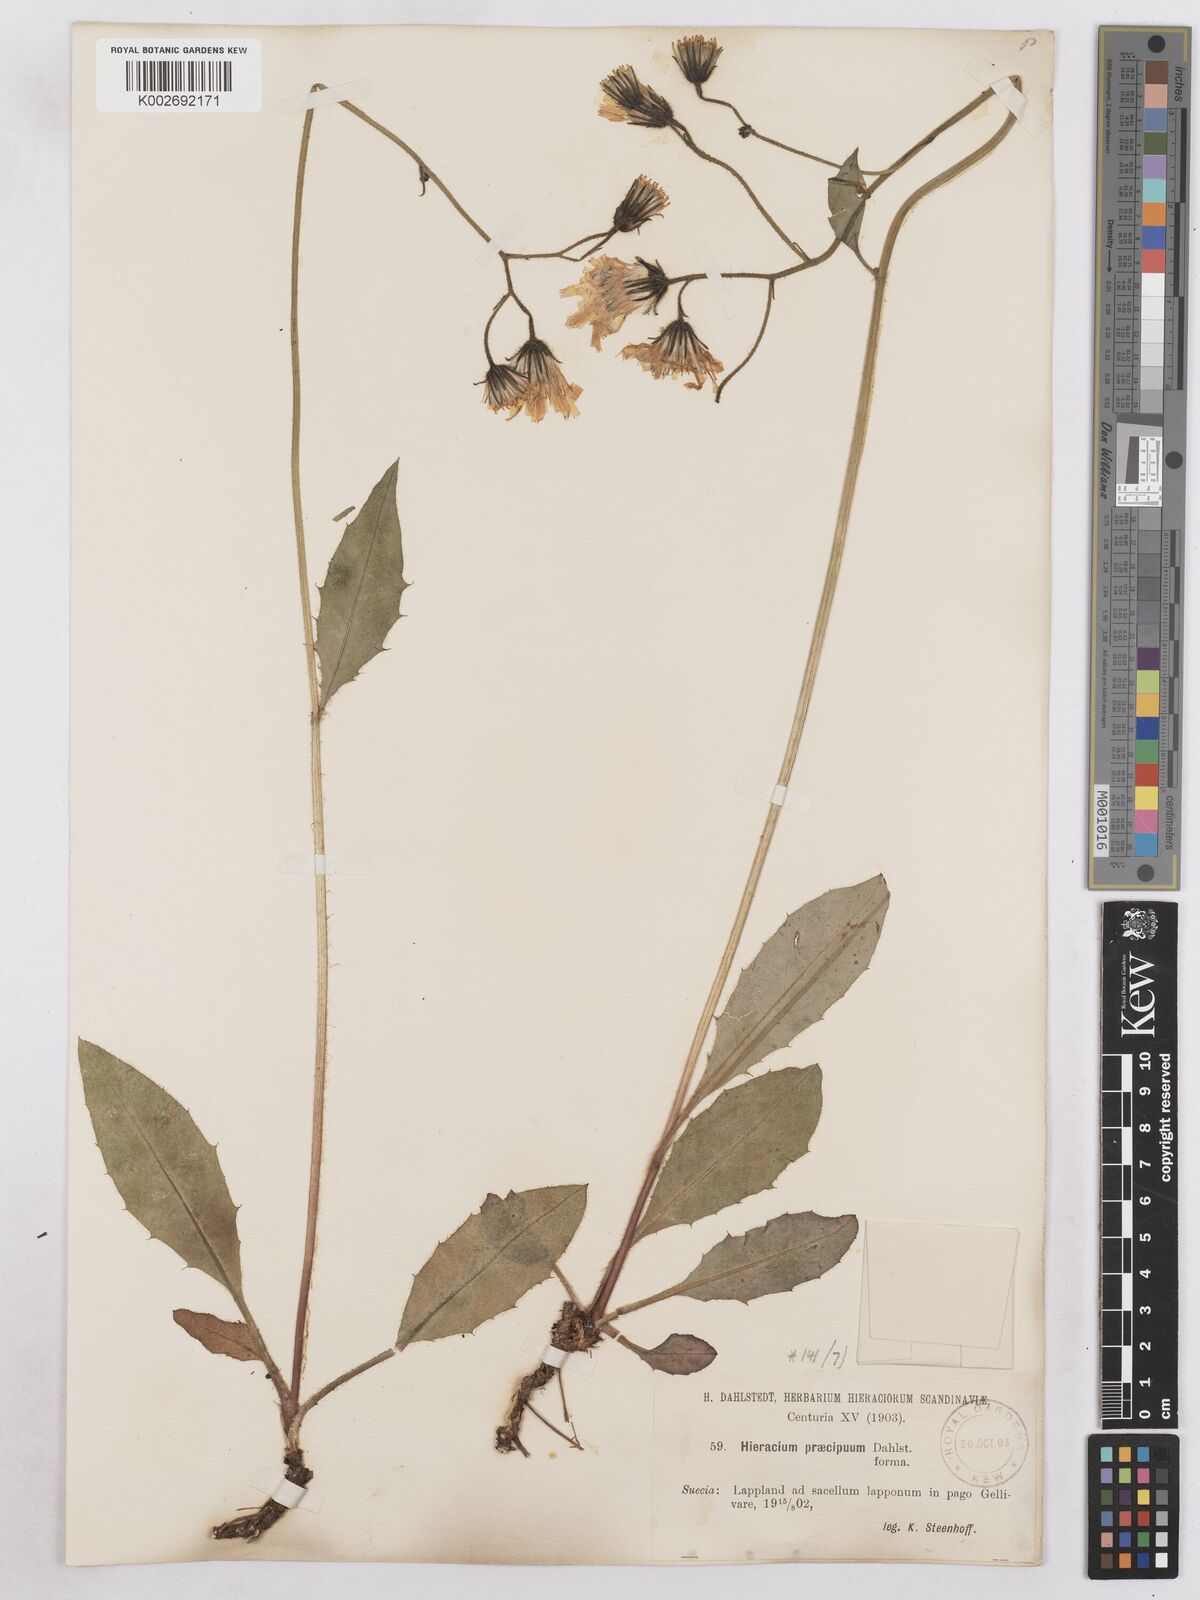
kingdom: Plantae
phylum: Tracheophyta
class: Magnoliopsida
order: Asterales
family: Asteraceae
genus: Hieracium
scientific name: Hieracium diaphanoides
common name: Fine-bracted hawkweed
